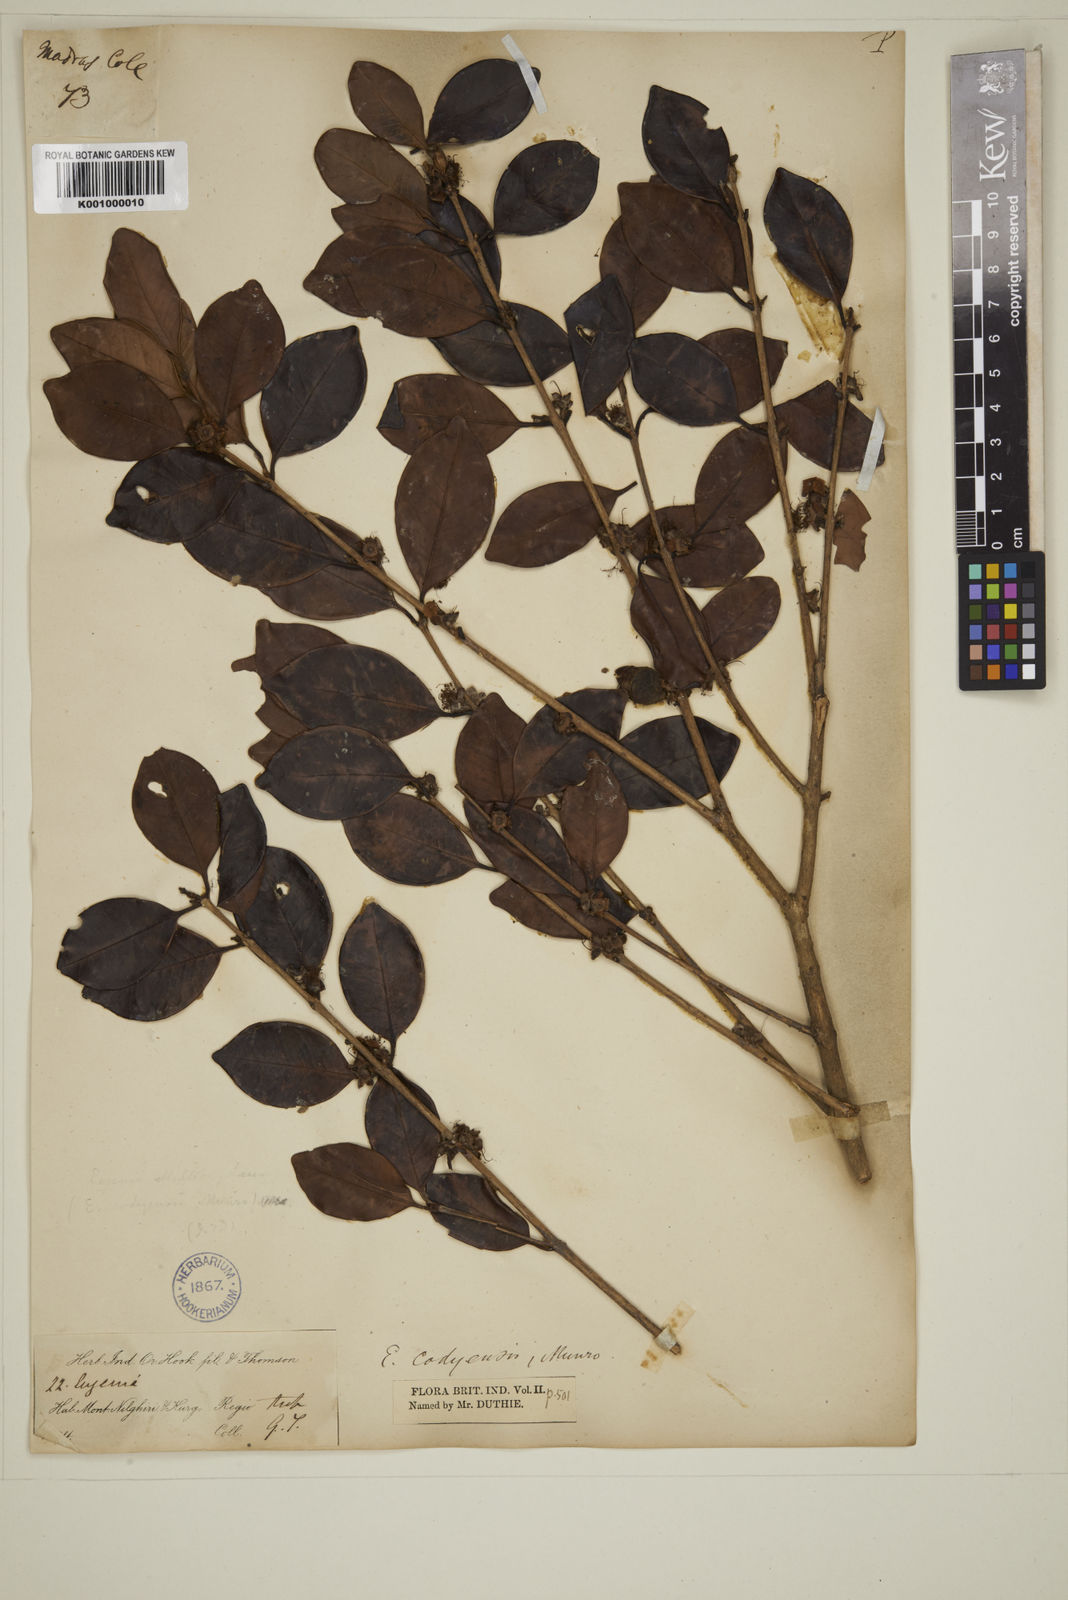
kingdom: Plantae
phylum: Tracheophyta
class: Magnoliopsida
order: Myrtales
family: Myrtaceae
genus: Eugenia
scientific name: Eugenia codyensis
